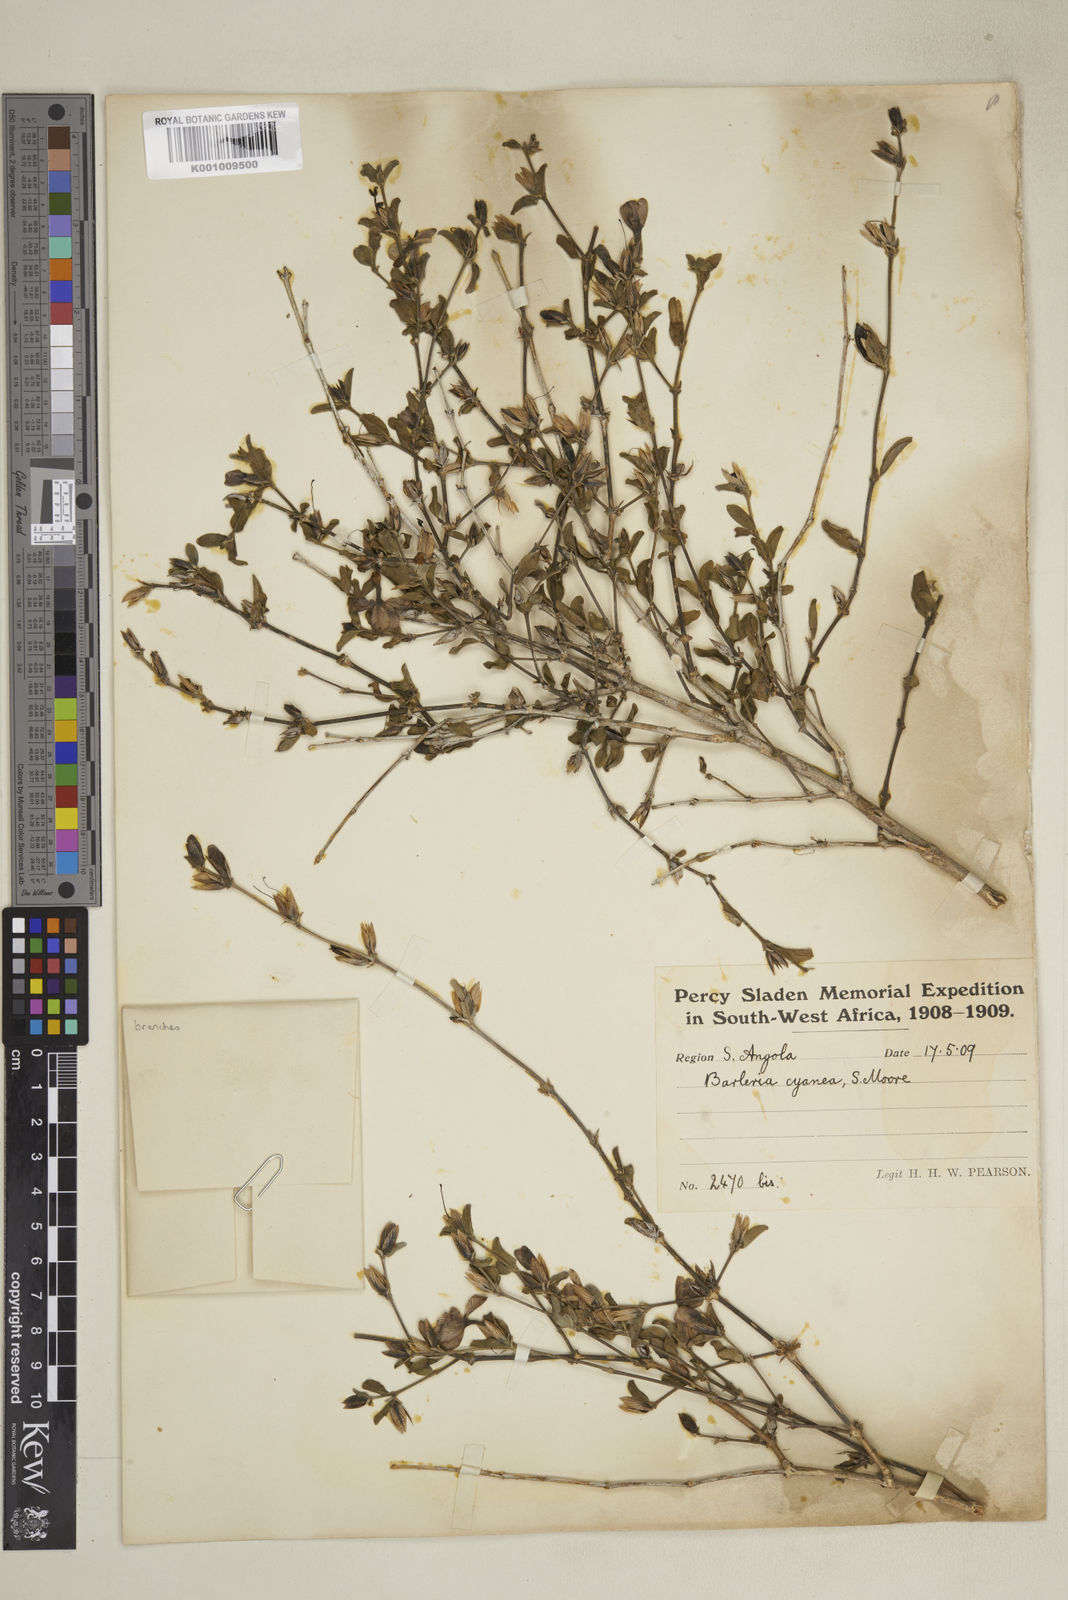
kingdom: Plantae
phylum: Tracheophyta
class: Magnoliopsida
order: Lamiales
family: Acanthaceae
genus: Barleria
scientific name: Barleria cyanea
